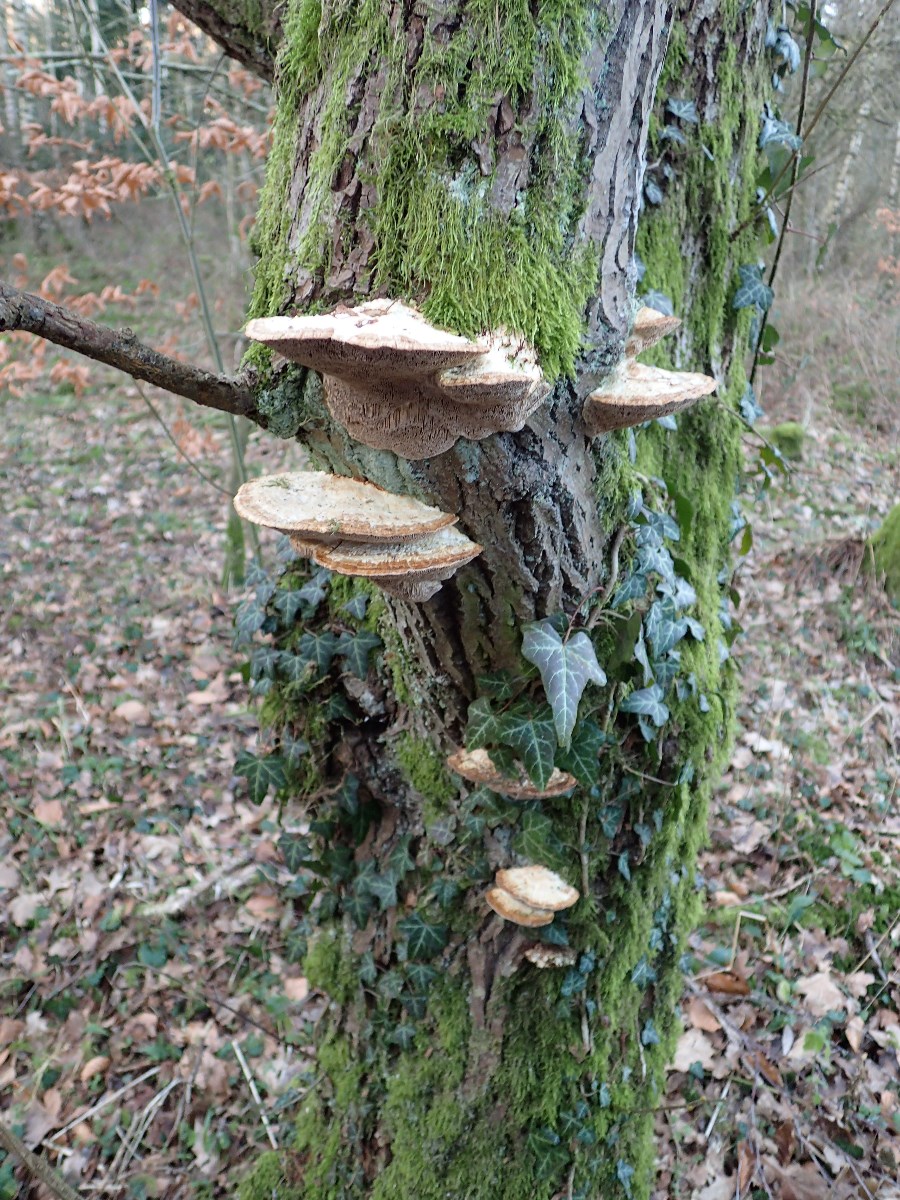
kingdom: Fungi
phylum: Basidiomycota
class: Agaricomycetes
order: Polyporales
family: Fomitopsidaceae
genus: Daedalea
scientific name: Daedalea quercina
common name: ege-labyrintsvamp
